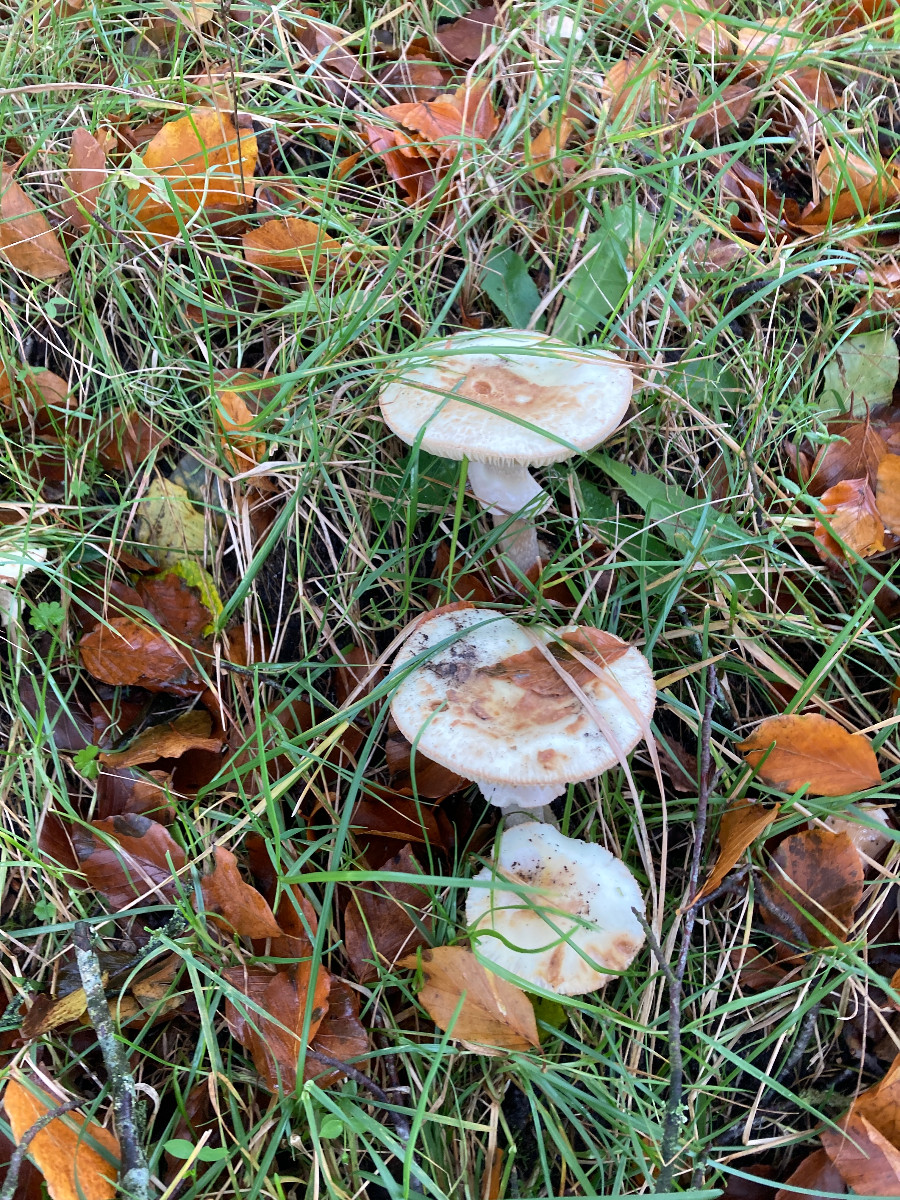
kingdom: Fungi
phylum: Basidiomycota
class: Agaricomycetes
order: Agaricales
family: Amanitaceae
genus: Amanita
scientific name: Amanita citrina
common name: False death-cap
